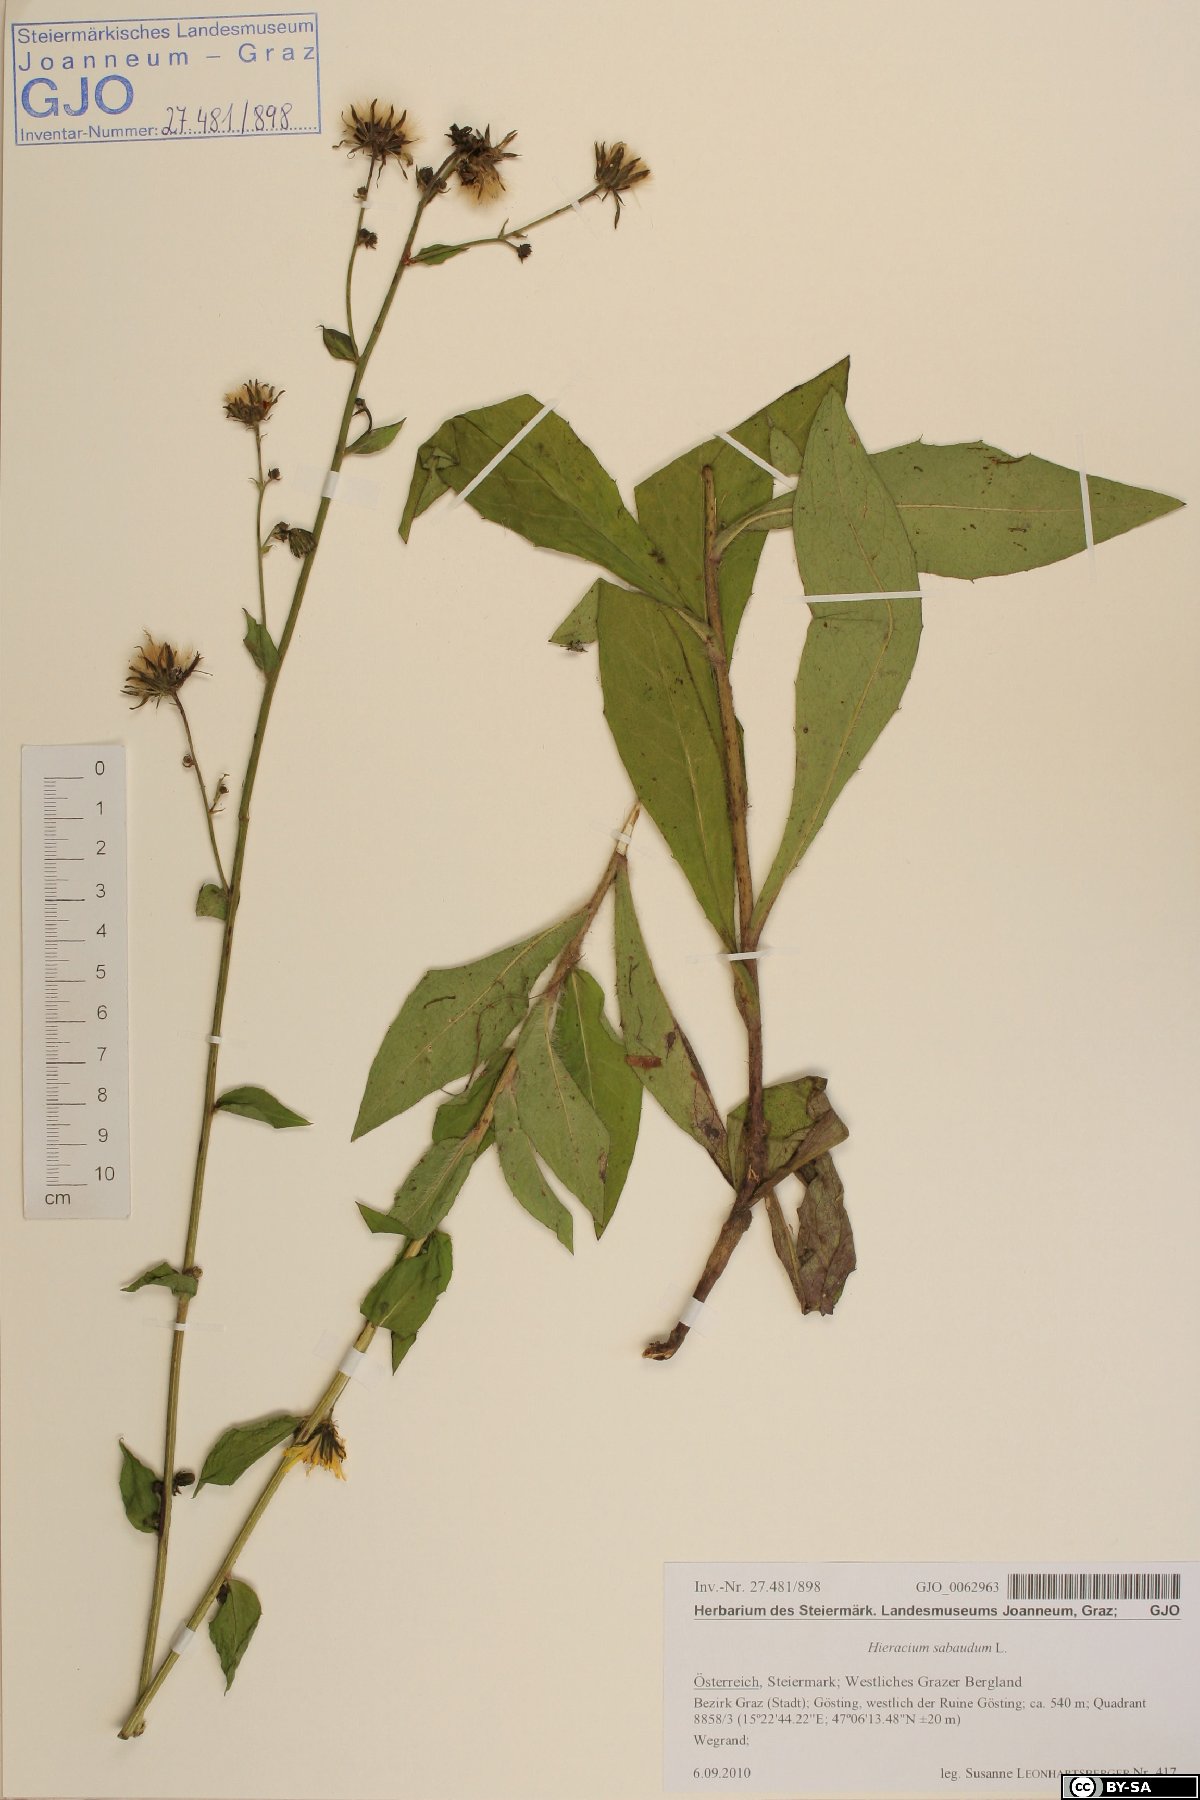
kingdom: Plantae
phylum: Tracheophyta
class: Magnoliopsida
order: Asterales
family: Asteraceae
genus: Hieracium
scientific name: Hieracium sabaudum
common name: New england hawkweed
